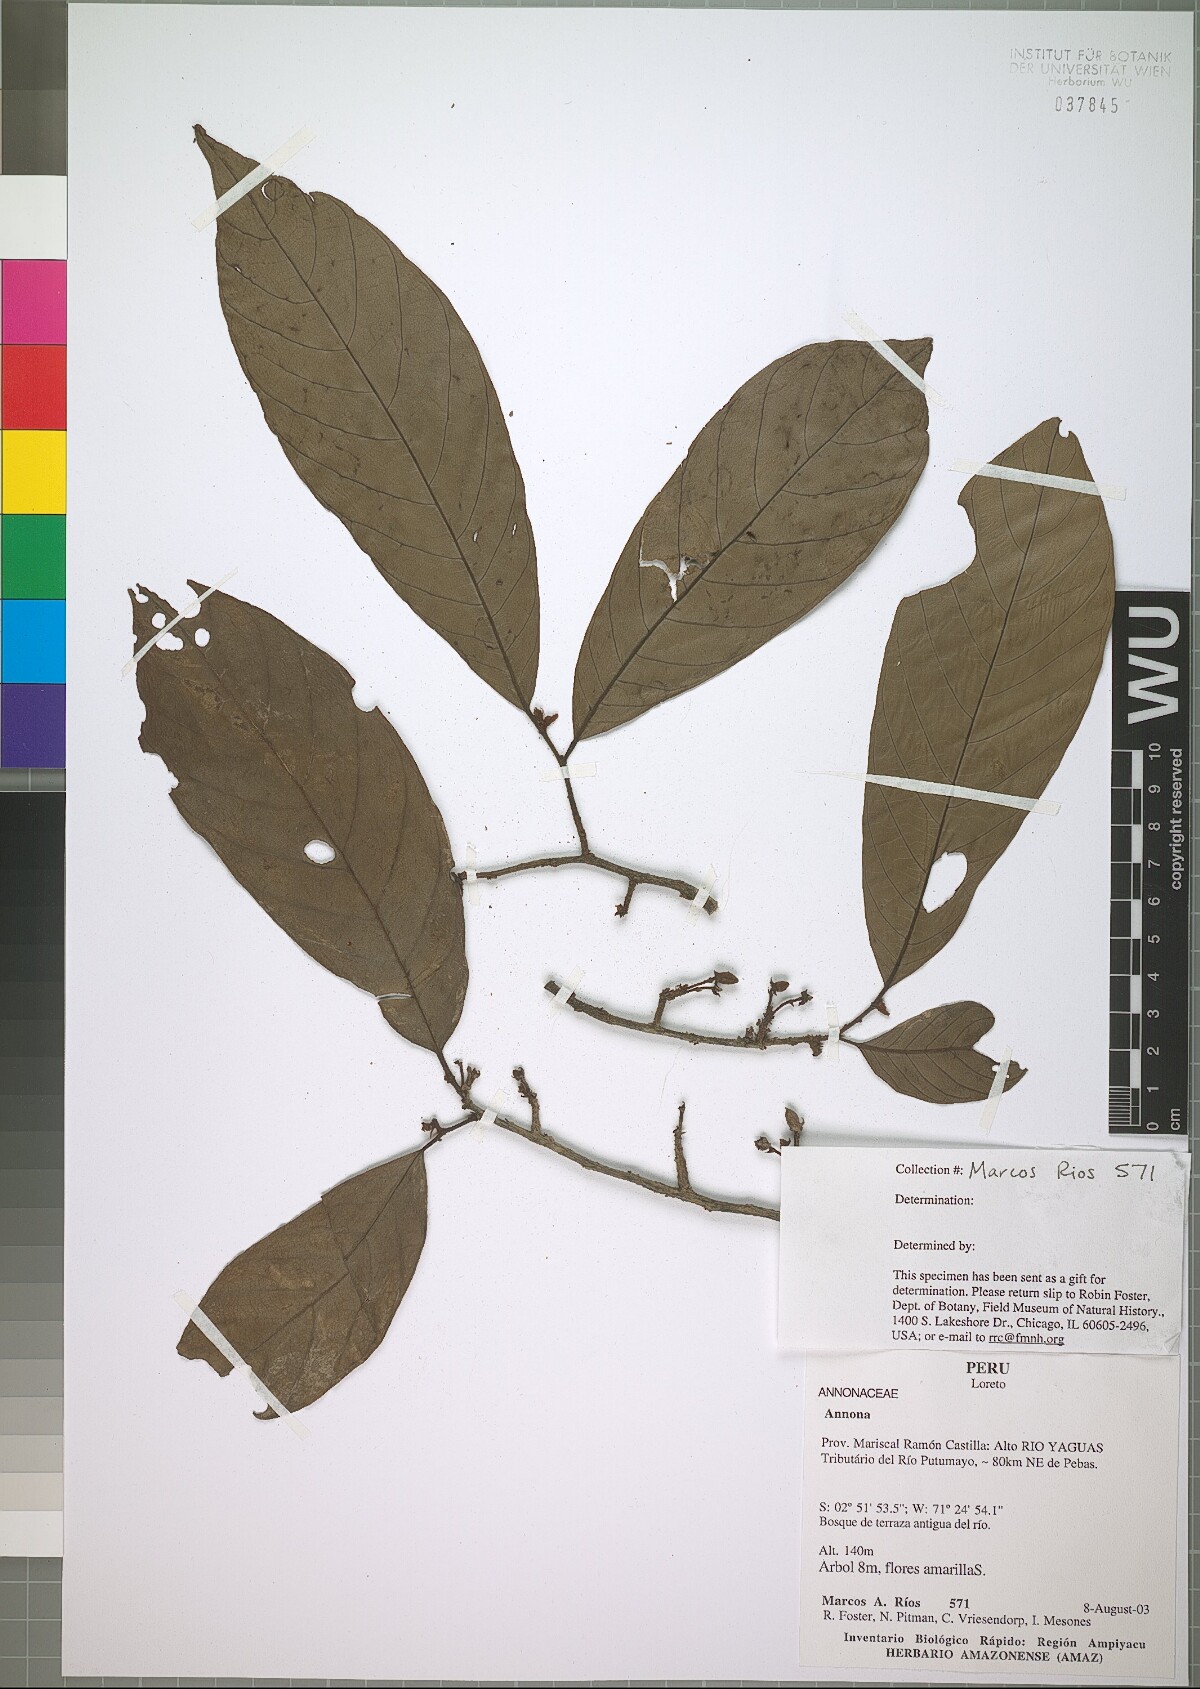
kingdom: Plantae
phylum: Tracheophyta
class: Magnoliopsida
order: Magnoliales
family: Annonaceae
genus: Annona
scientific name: Annona
